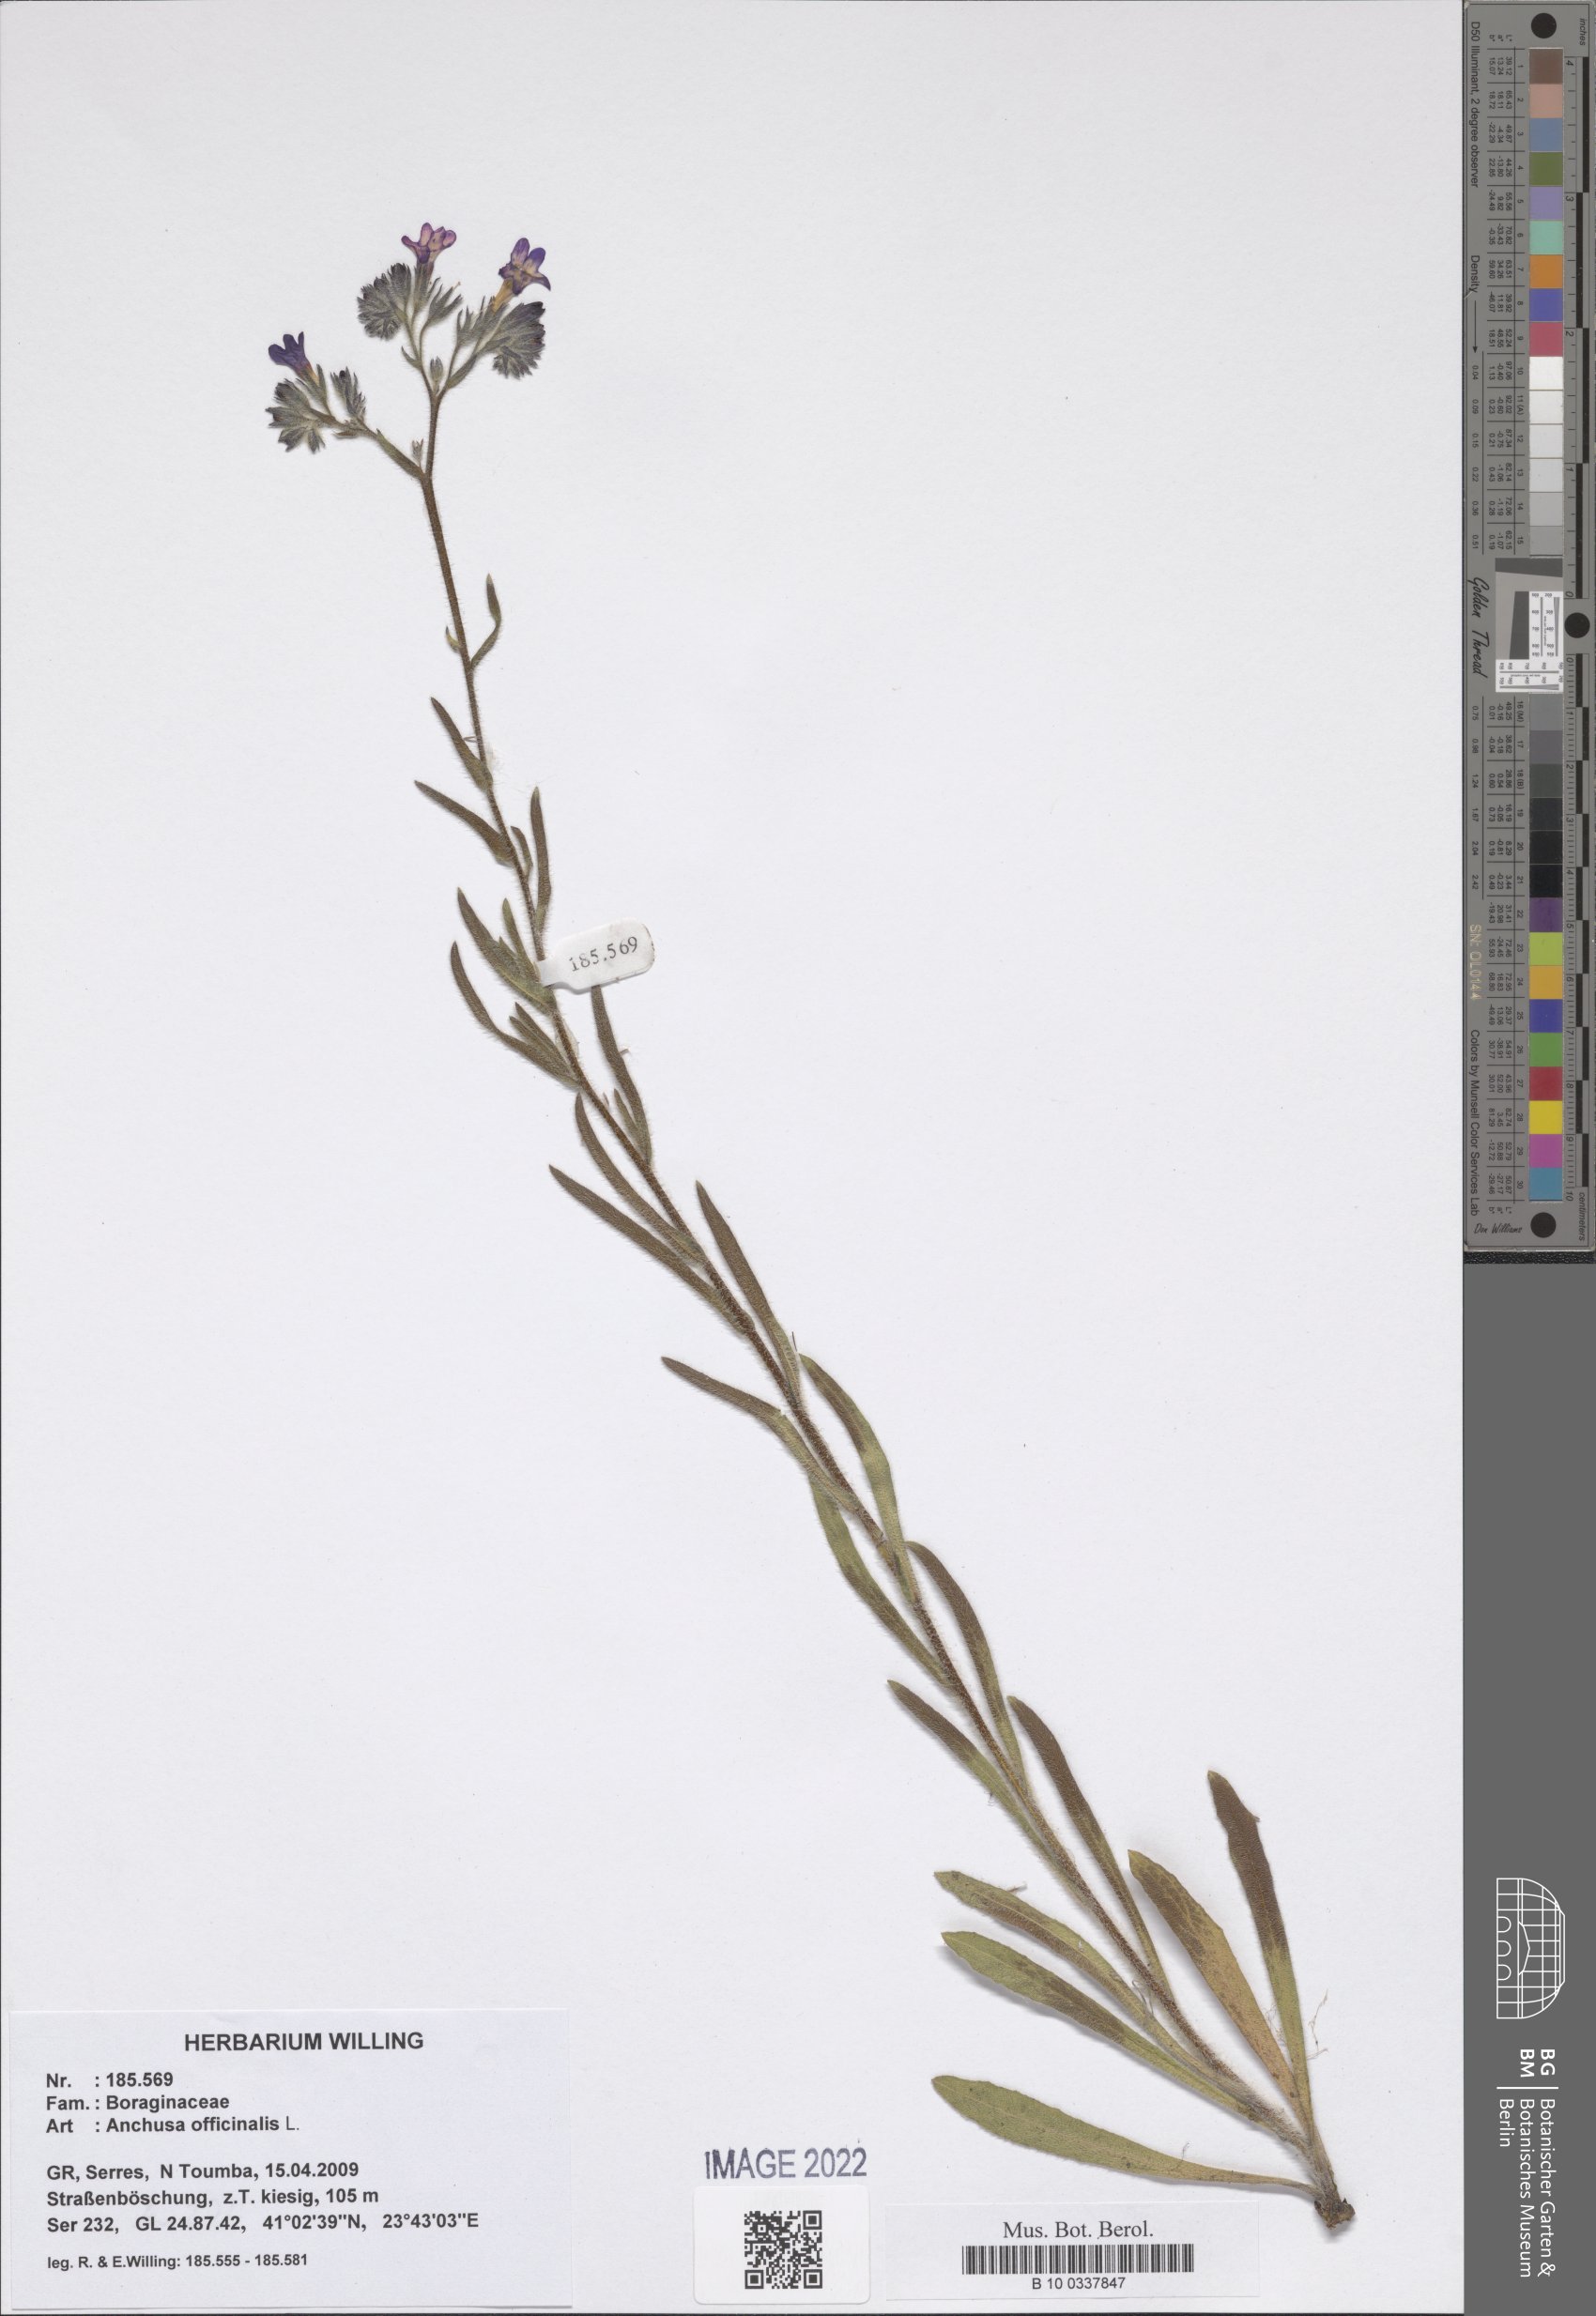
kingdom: Plantae
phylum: Tracheophyta
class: Magnoliopsida
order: Boraginales
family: Boraginaceae
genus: Anchusa
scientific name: Anchusa officinalis
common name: Alkanet
